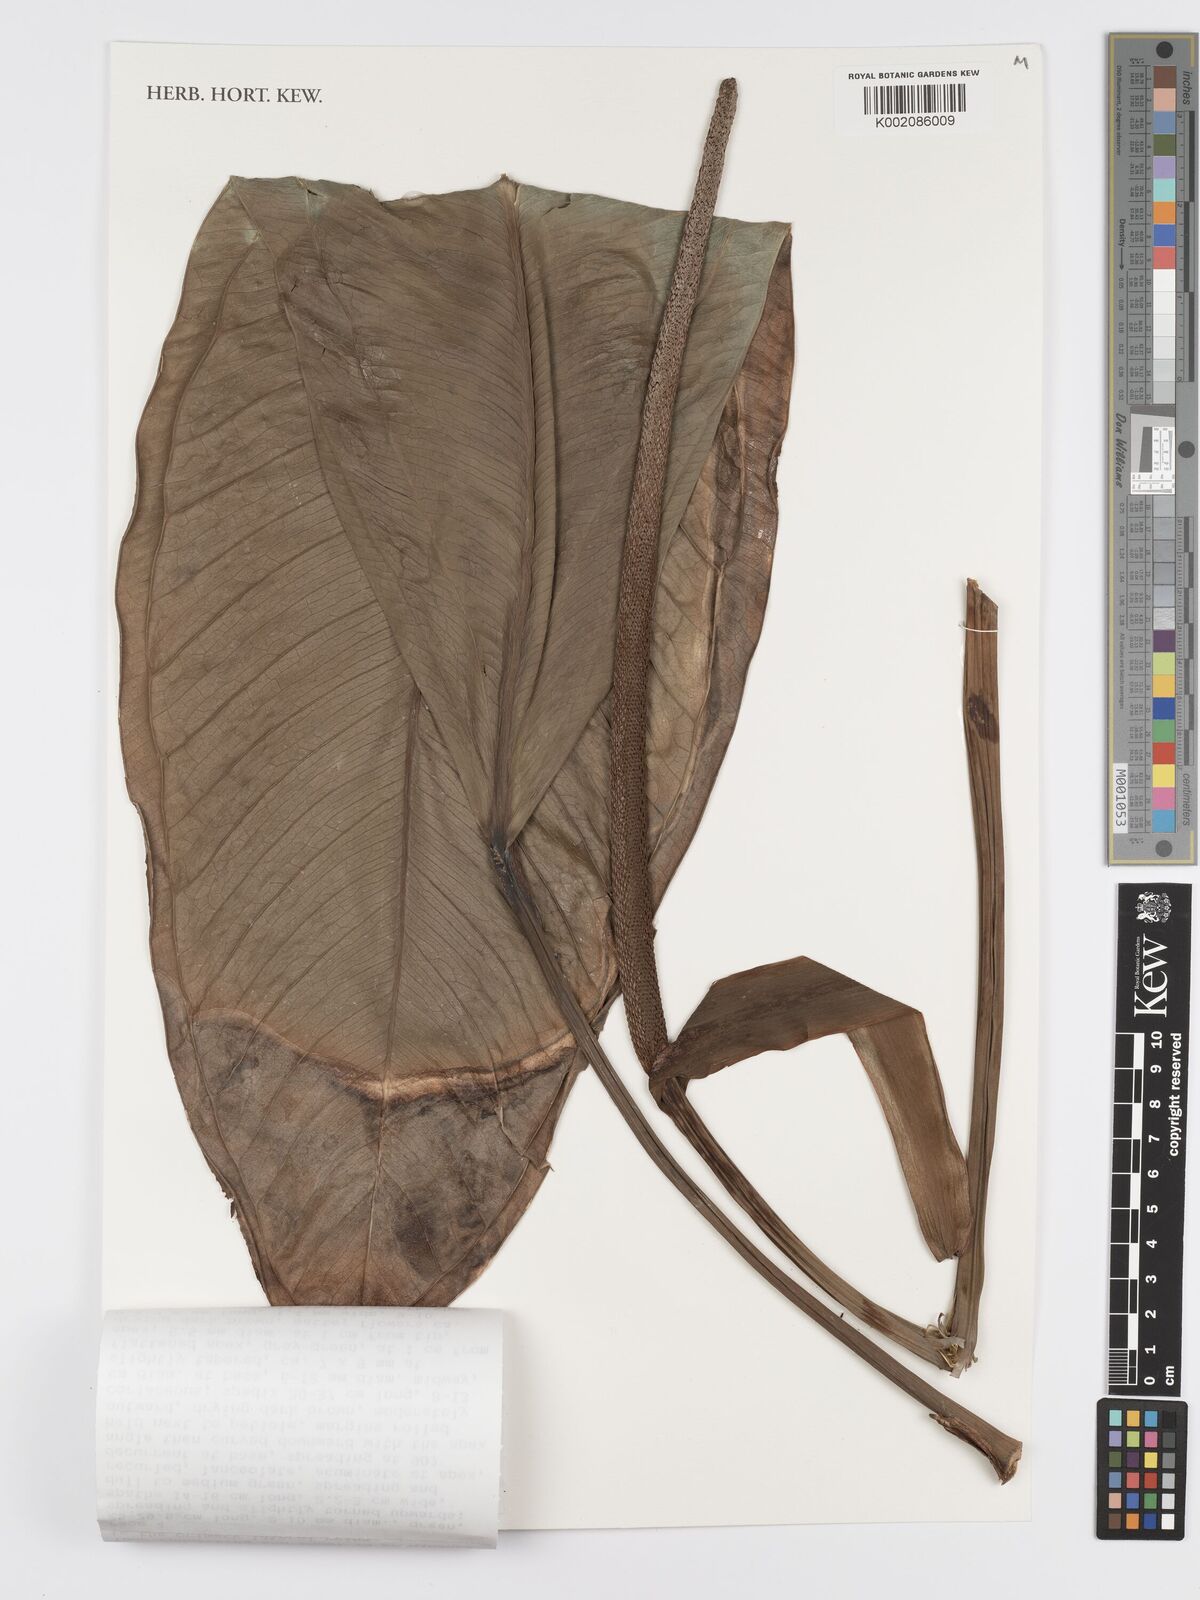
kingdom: Plantae
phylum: Tracheophyta
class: Liliopsida
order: Alismatales
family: Araceae
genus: Anthurium
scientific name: Anthurium dylanii
